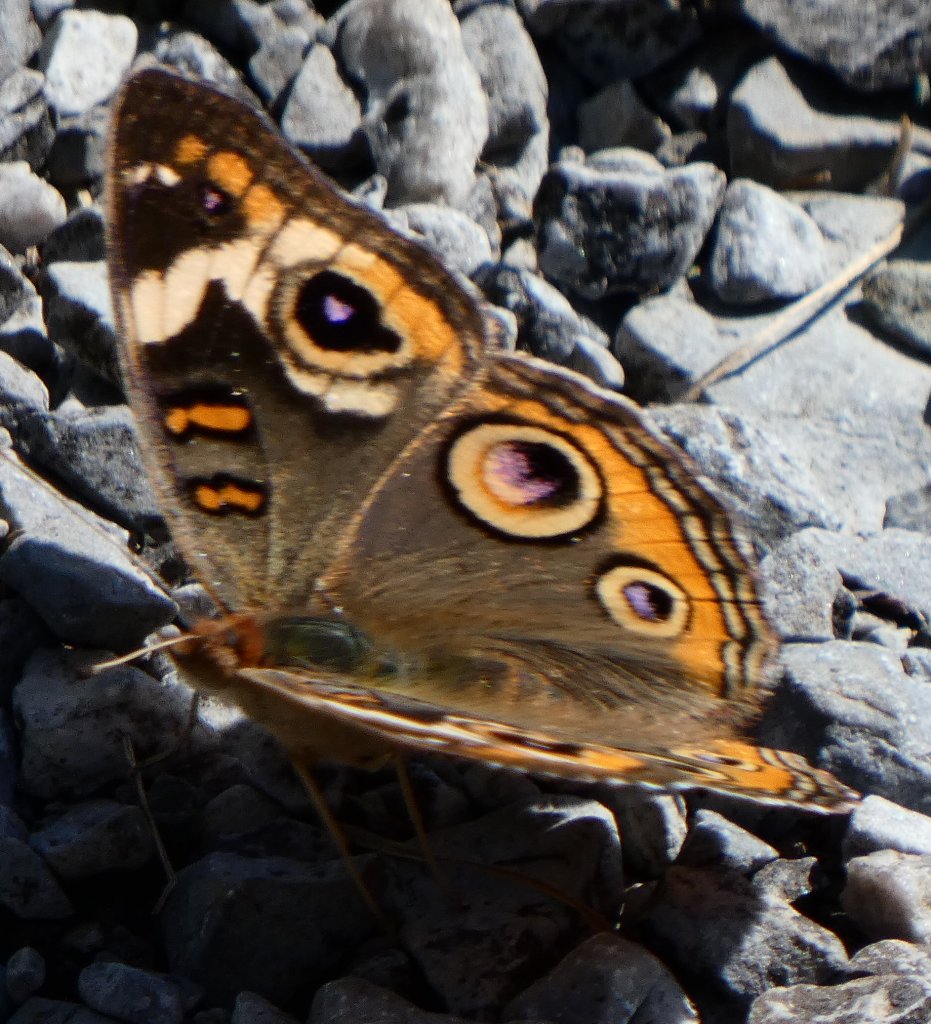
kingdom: Animalia
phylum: Arthropoda
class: Insecta
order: Lepidoptera
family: Nymphalidae
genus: Junonia
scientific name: Junonia coenia
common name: Common Buckeye
